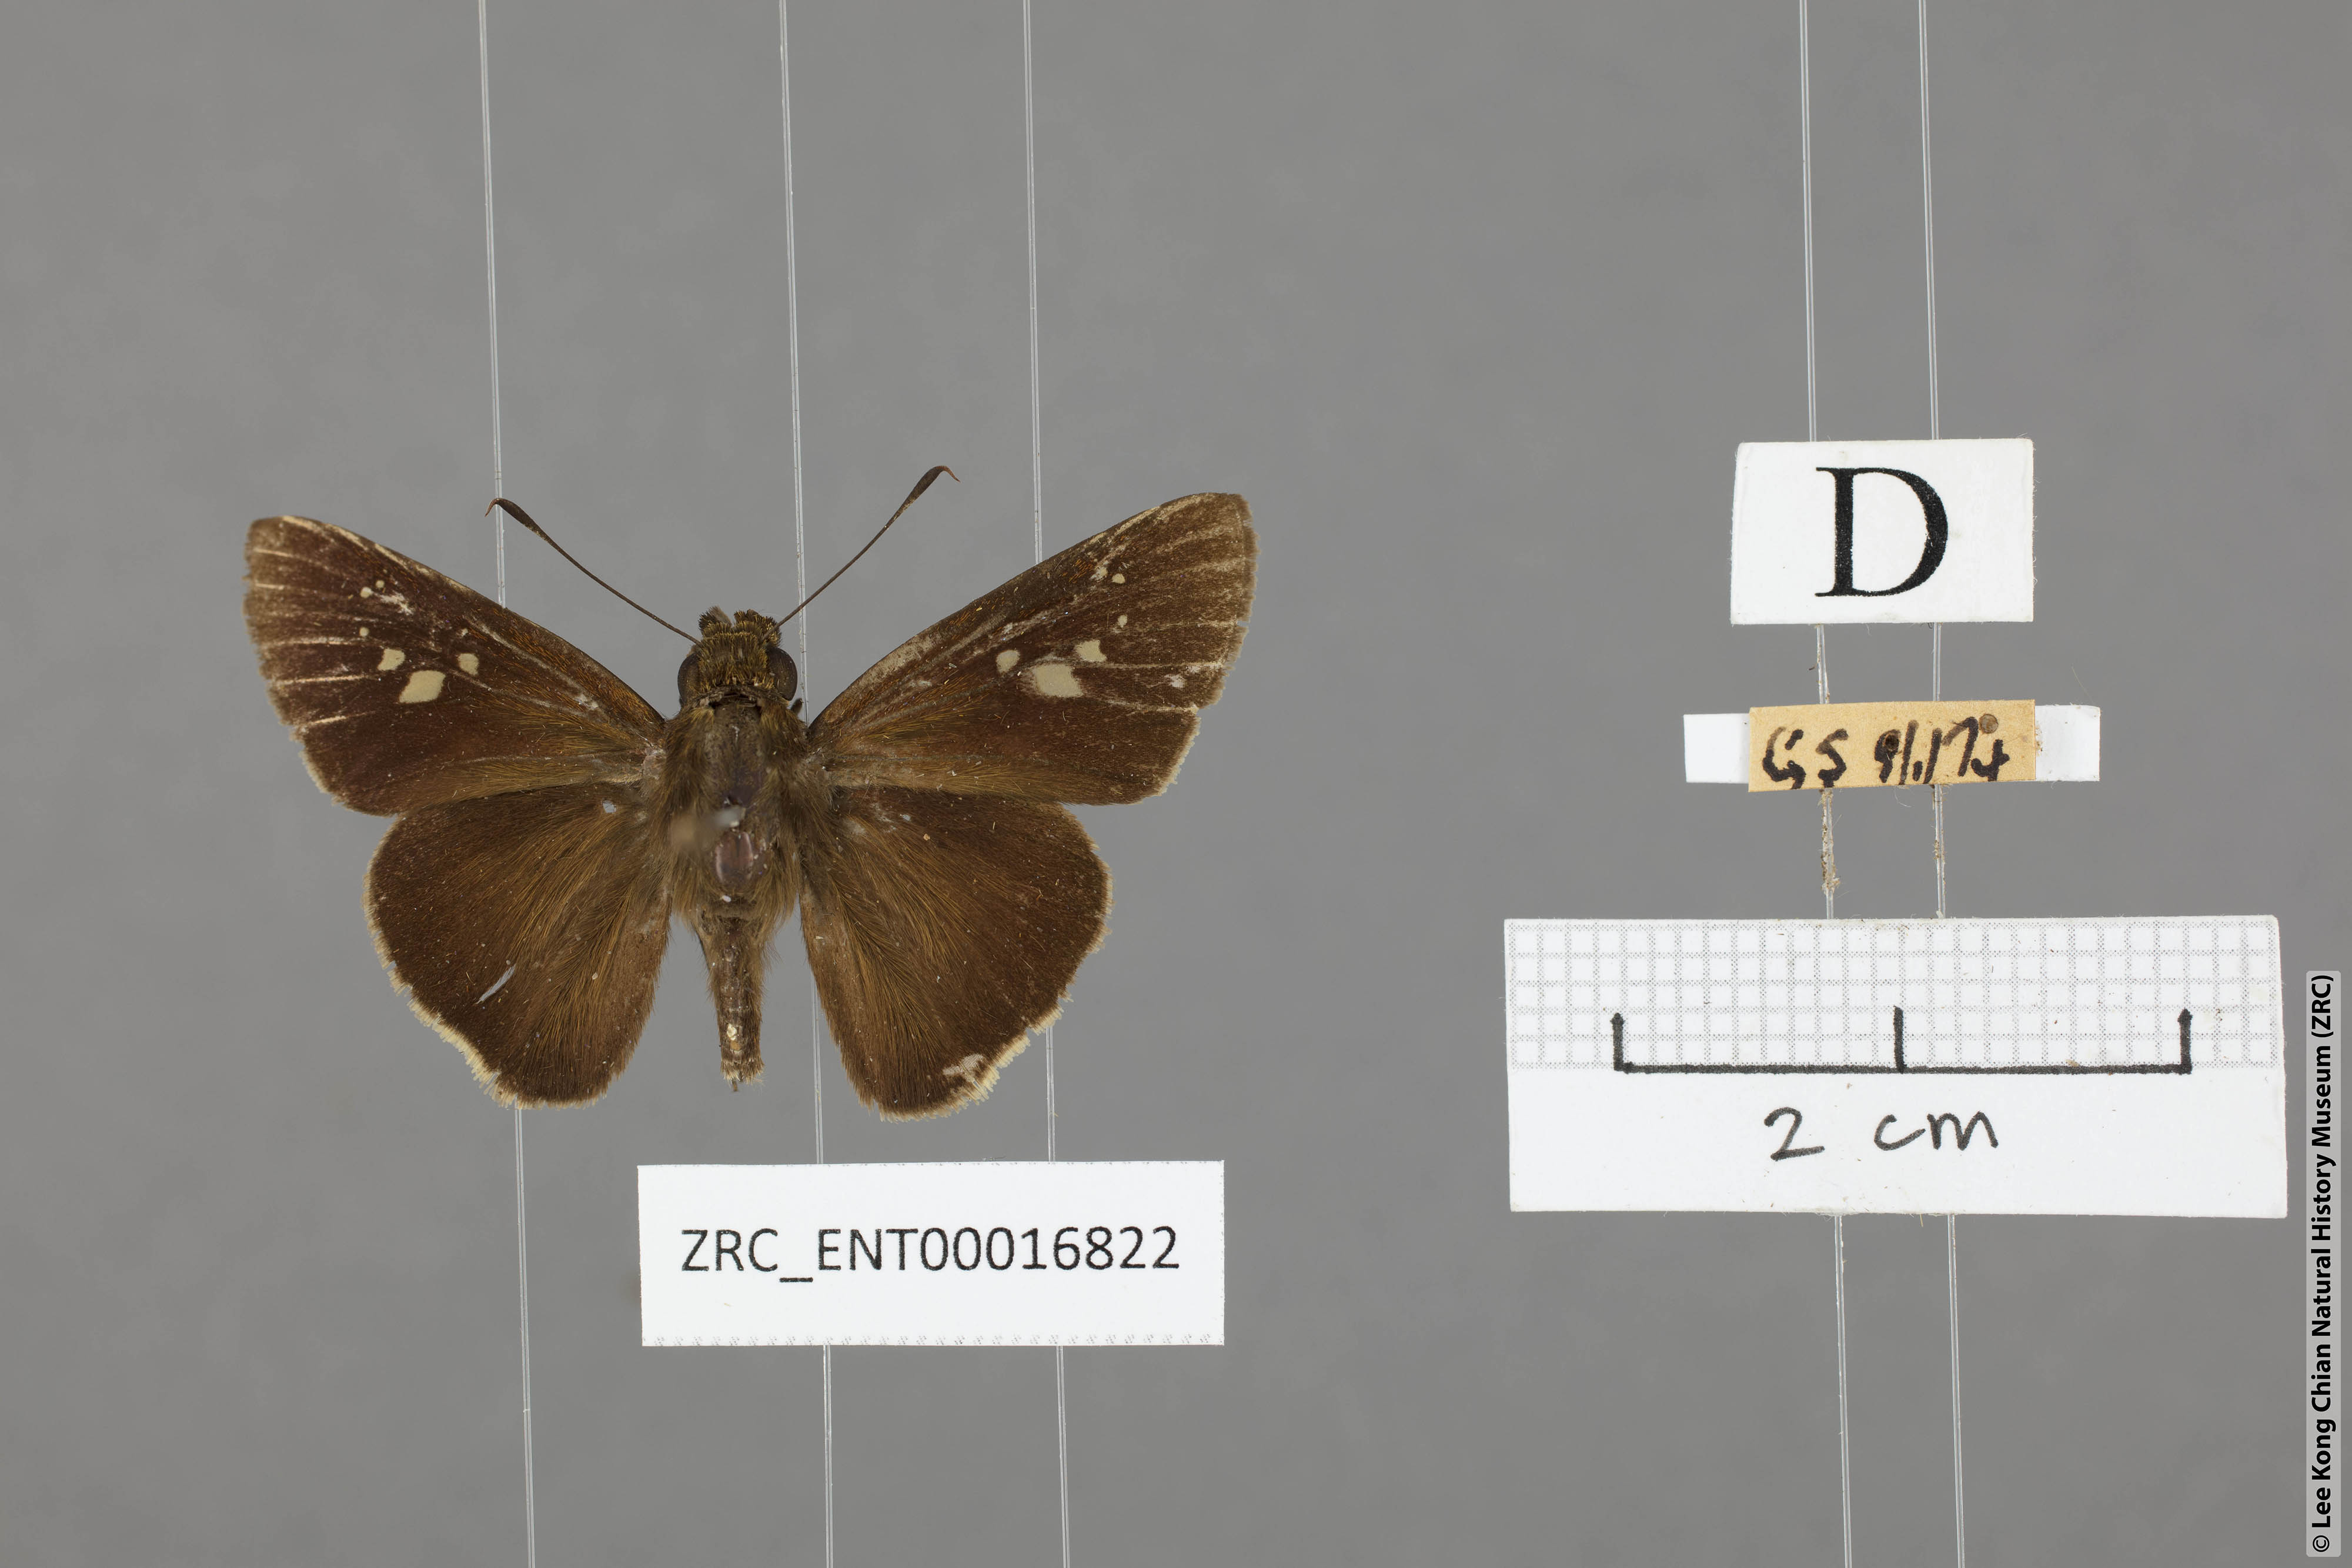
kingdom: Animalia
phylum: Arthropoda
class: Insecta
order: Lepidoptera
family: Hesperiidae
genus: Caltoris
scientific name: Caltoris cormasa
